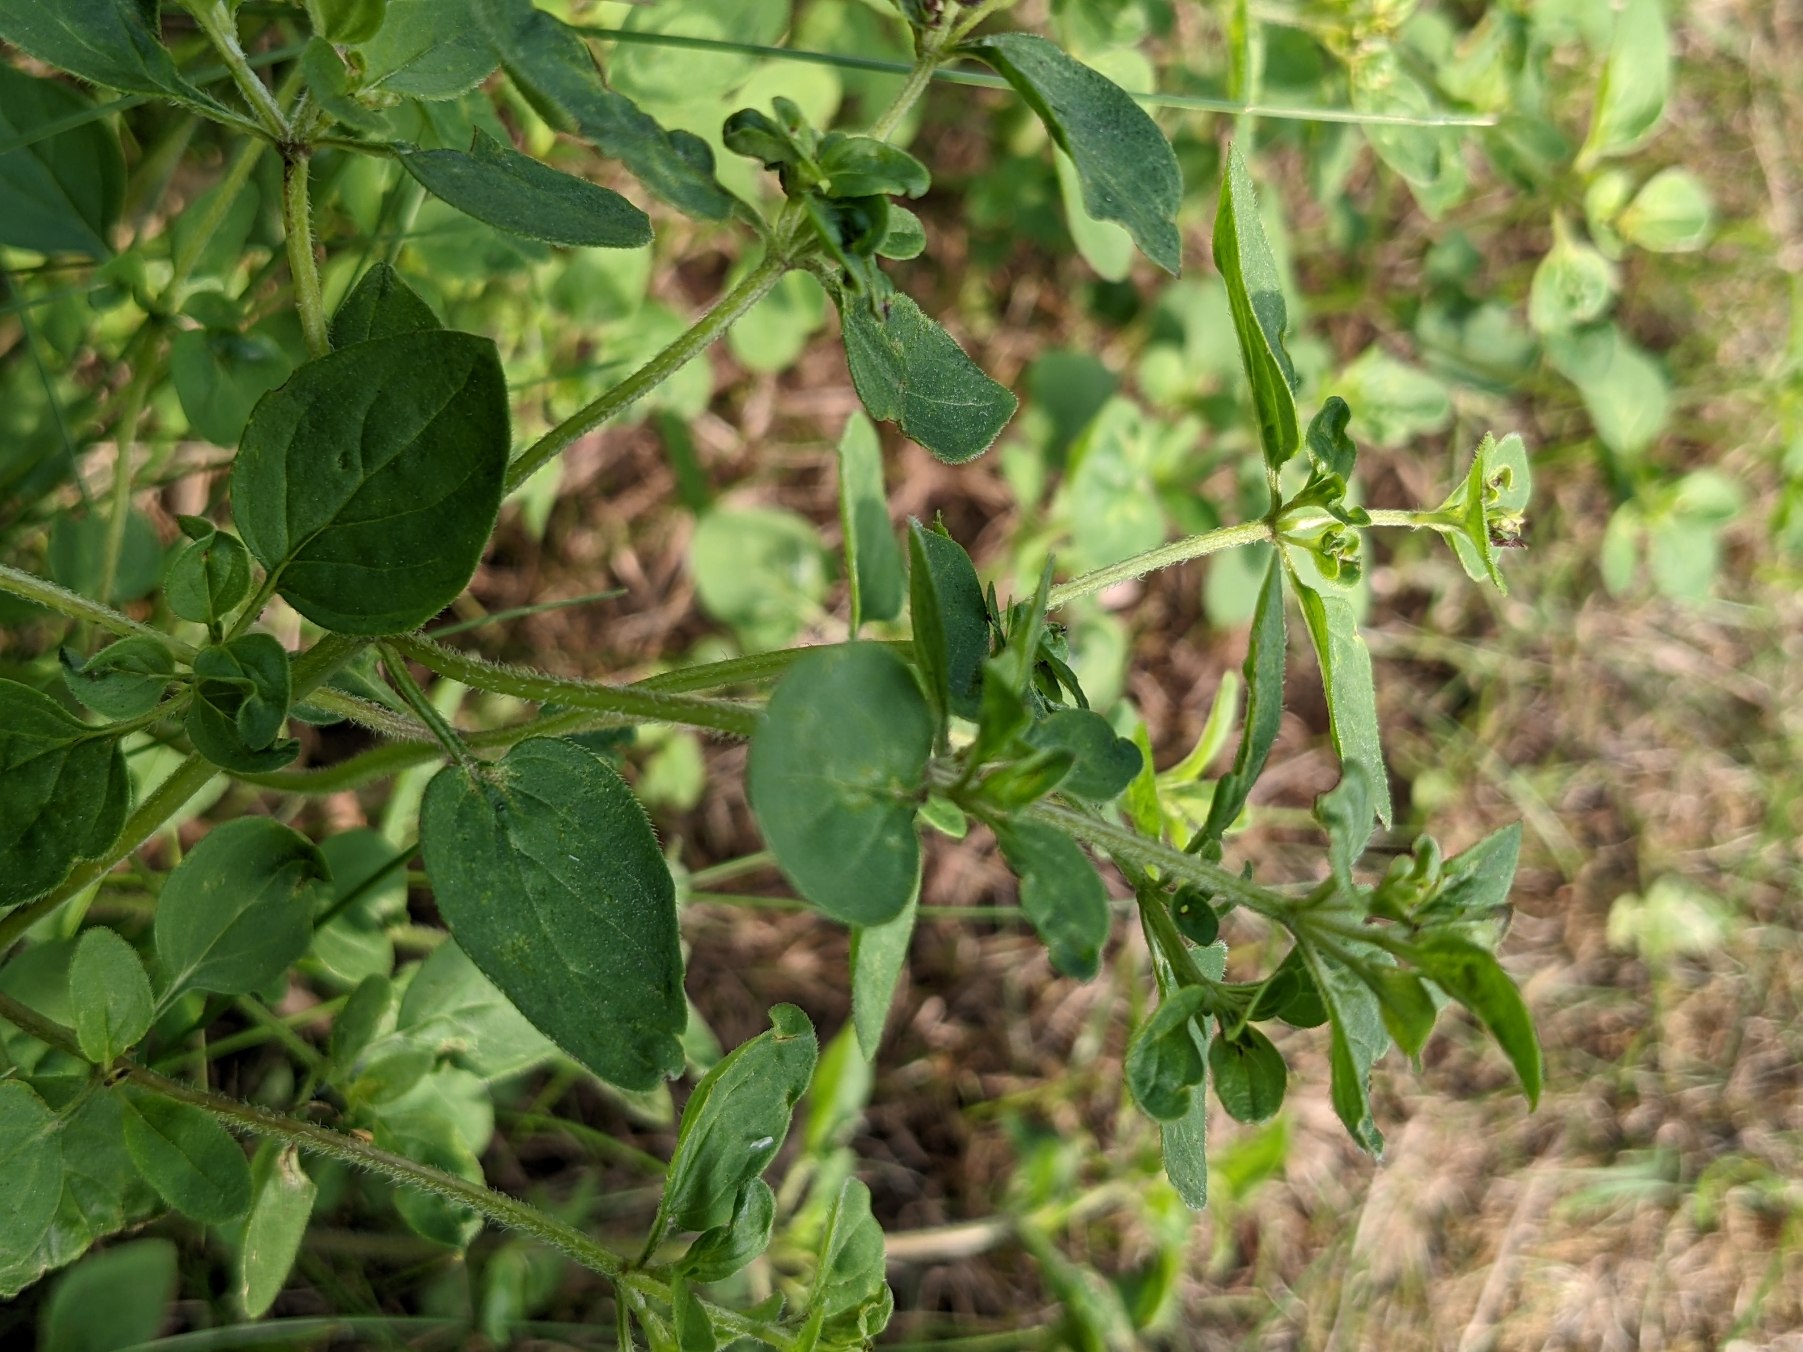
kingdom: Plantae
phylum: Tracheophyta
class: Magnoliopsida
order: Lamiales
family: Lamiaceae
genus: Origanum
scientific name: Origanum vulgare
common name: Merian
